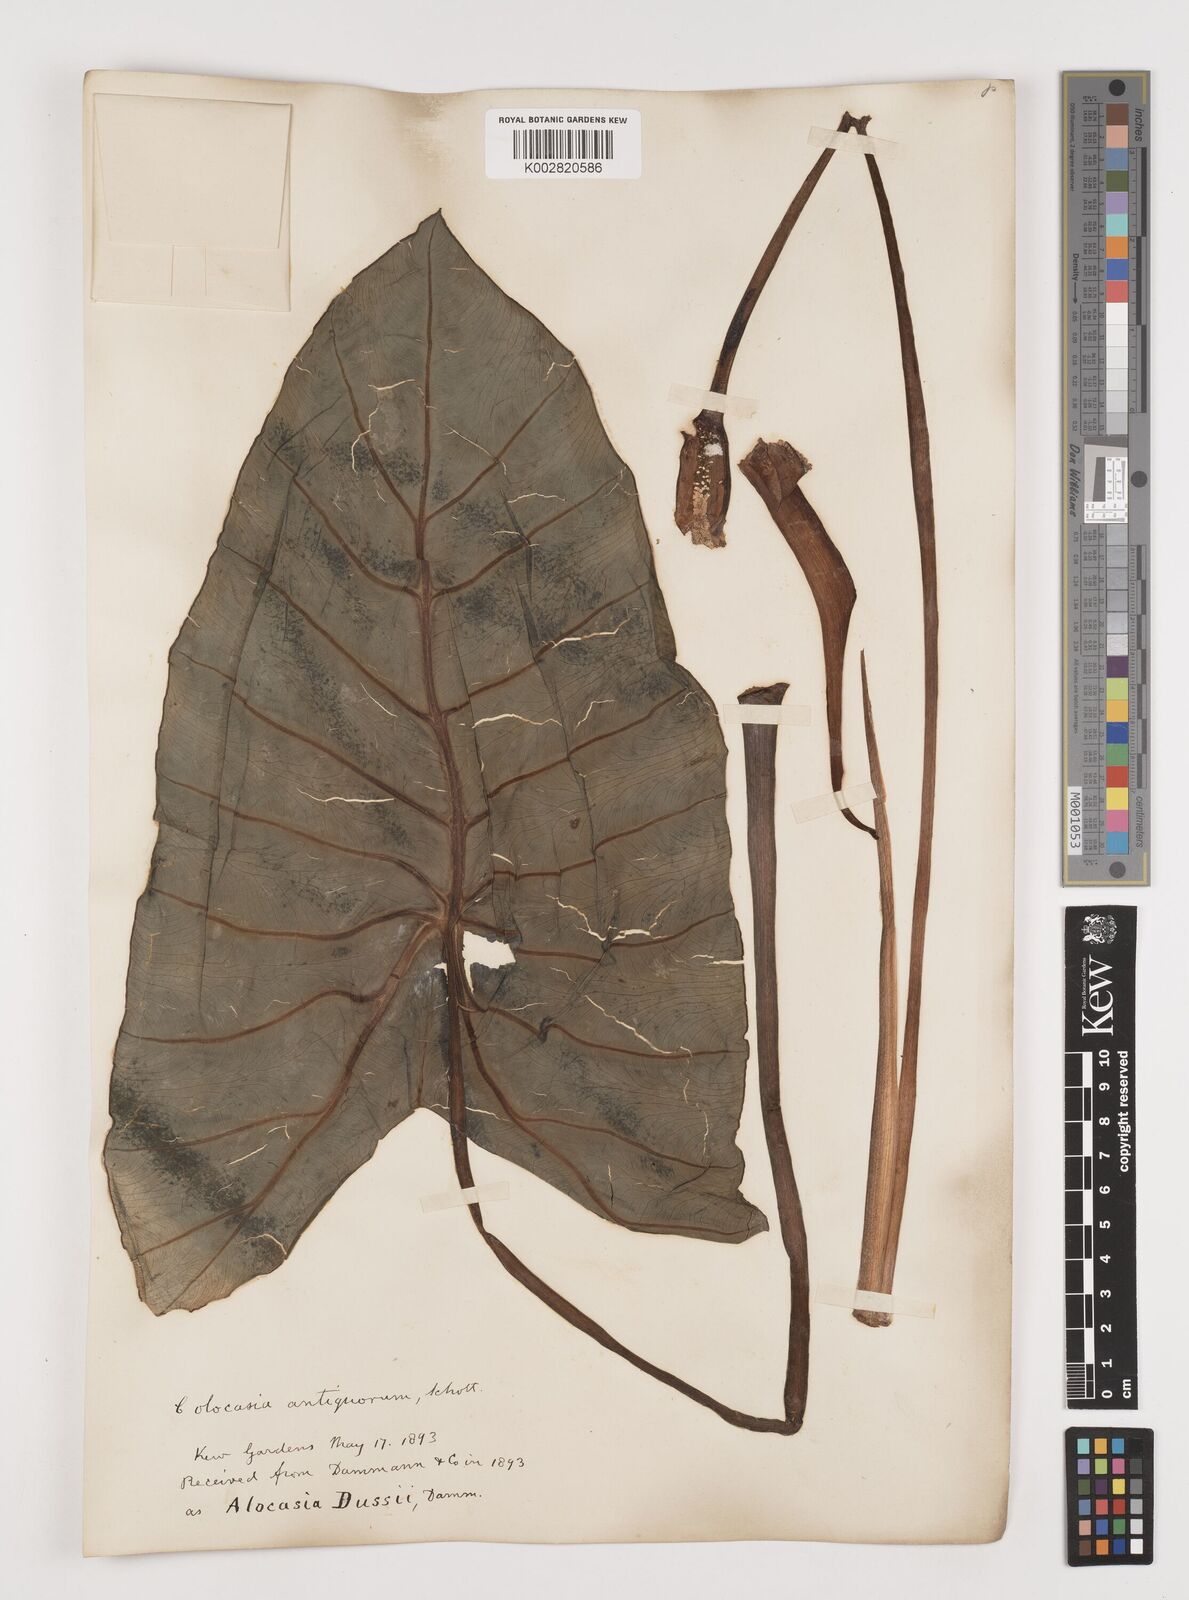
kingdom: Plantae
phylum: Tracheophyta
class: Liliopsida
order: Alismatales
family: Araceae
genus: Colocasia
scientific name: Colocasia esculenta
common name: Taro
